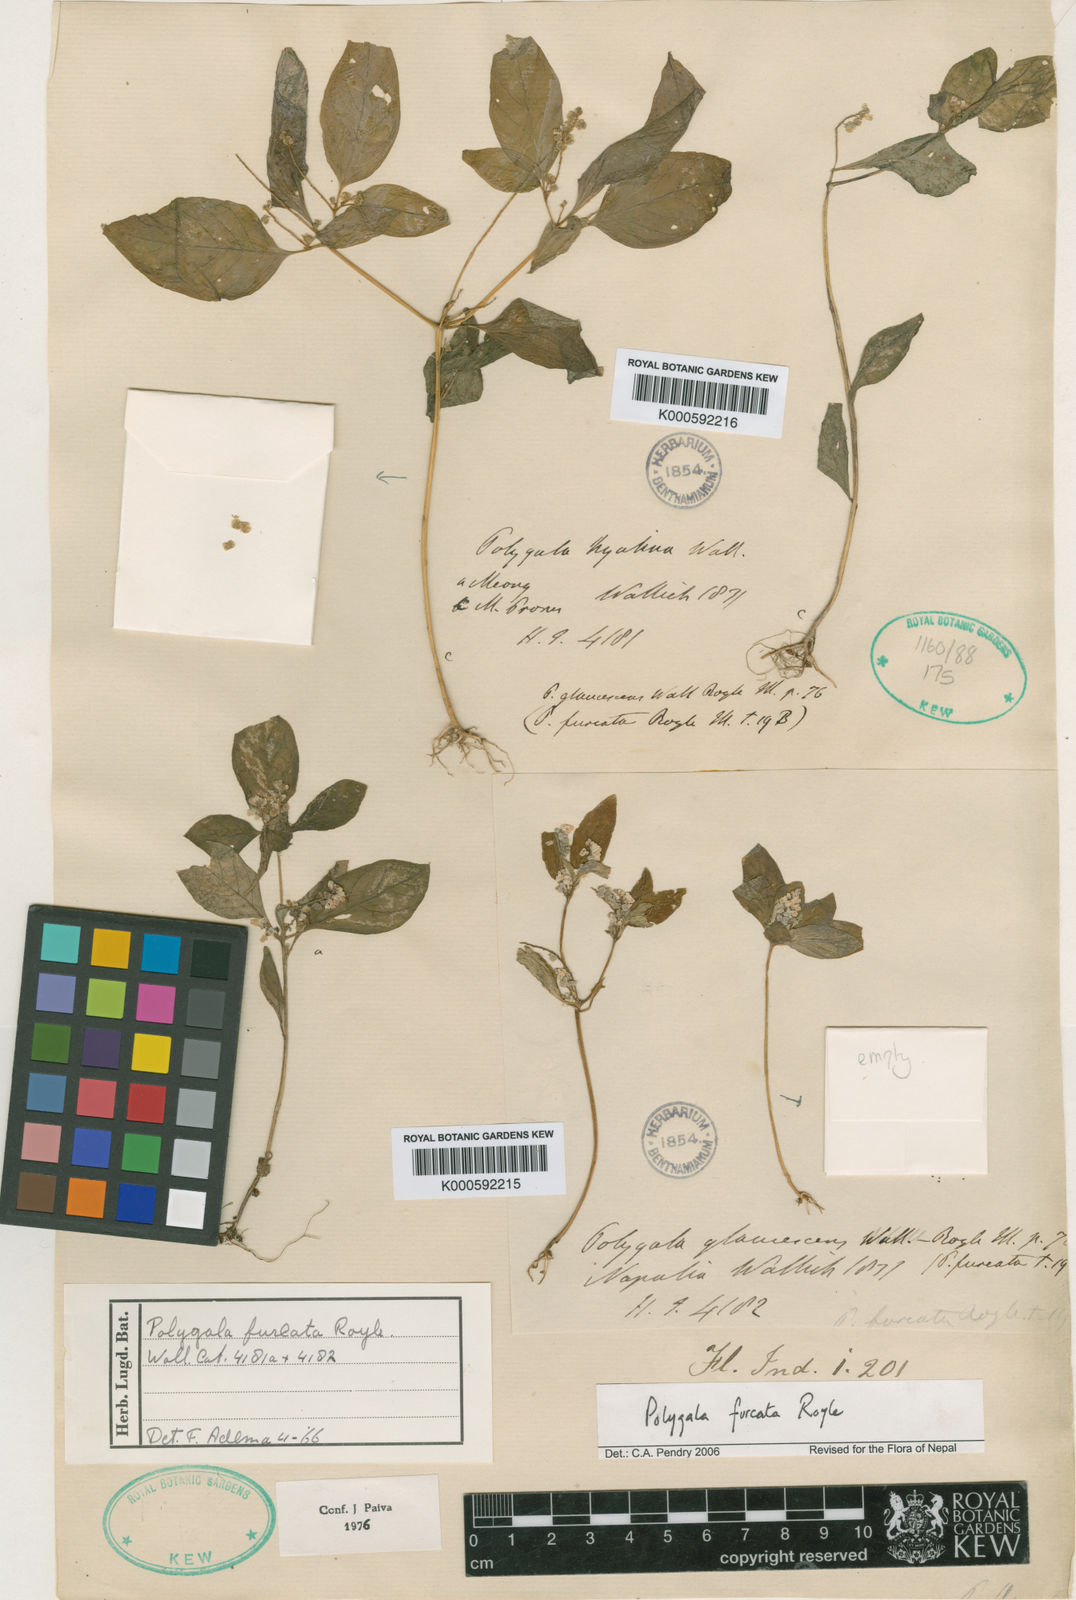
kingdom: Plantae
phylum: Tracheophyta
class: Magnoliopsida
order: Fabales
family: Polygalaceae
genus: Polygala
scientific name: Polygala furcata
